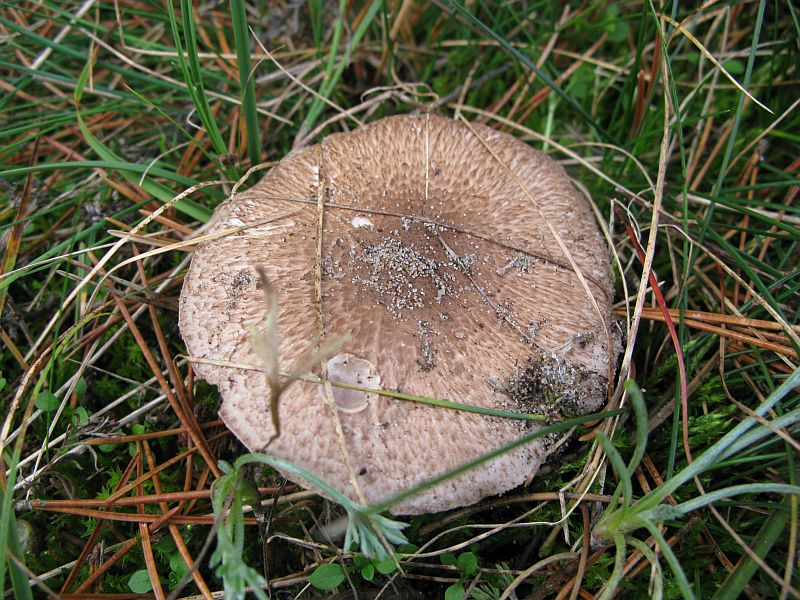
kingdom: Fungi
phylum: Basidiomycota
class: Agaricomycetes
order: Agaricales
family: Agaricaceae
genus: Agaricus
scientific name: Agaricus impudicus
